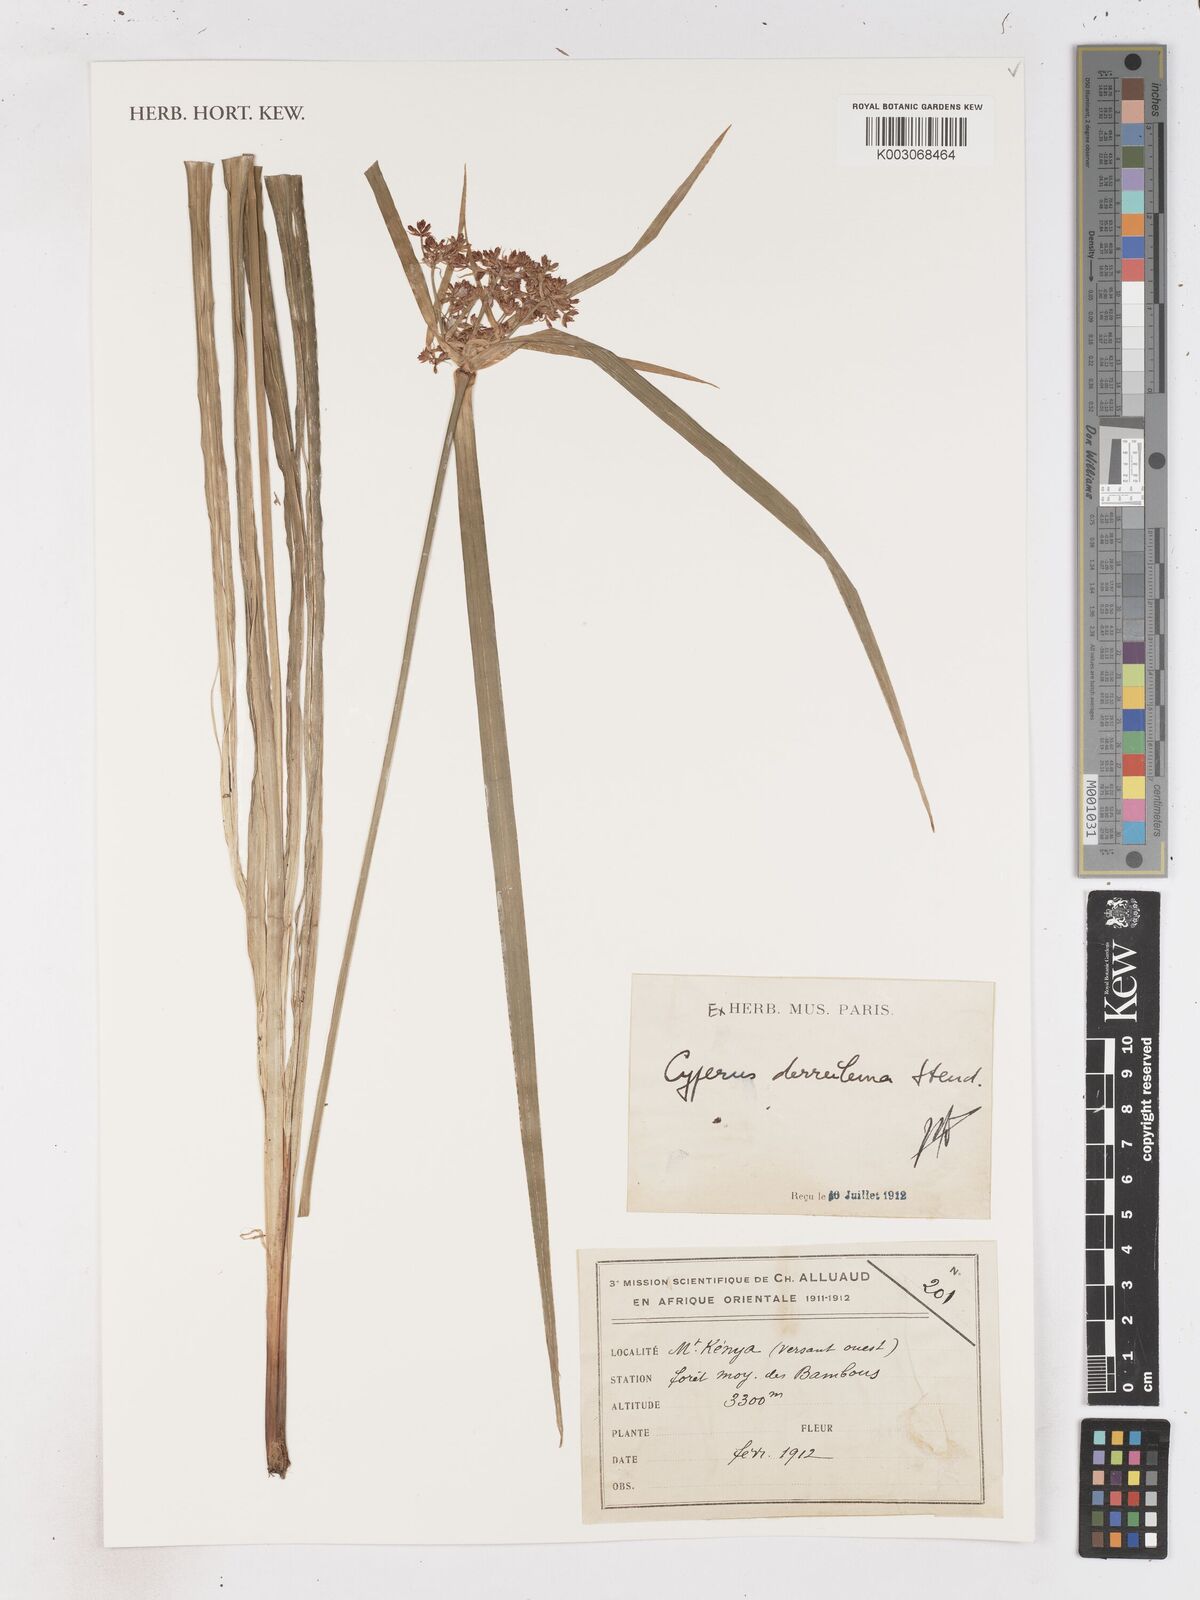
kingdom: Plantae
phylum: Tracheophyta
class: Liliopsida
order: Poales
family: Cyperaceae
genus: Cyperus
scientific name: Cyperus derreilema
